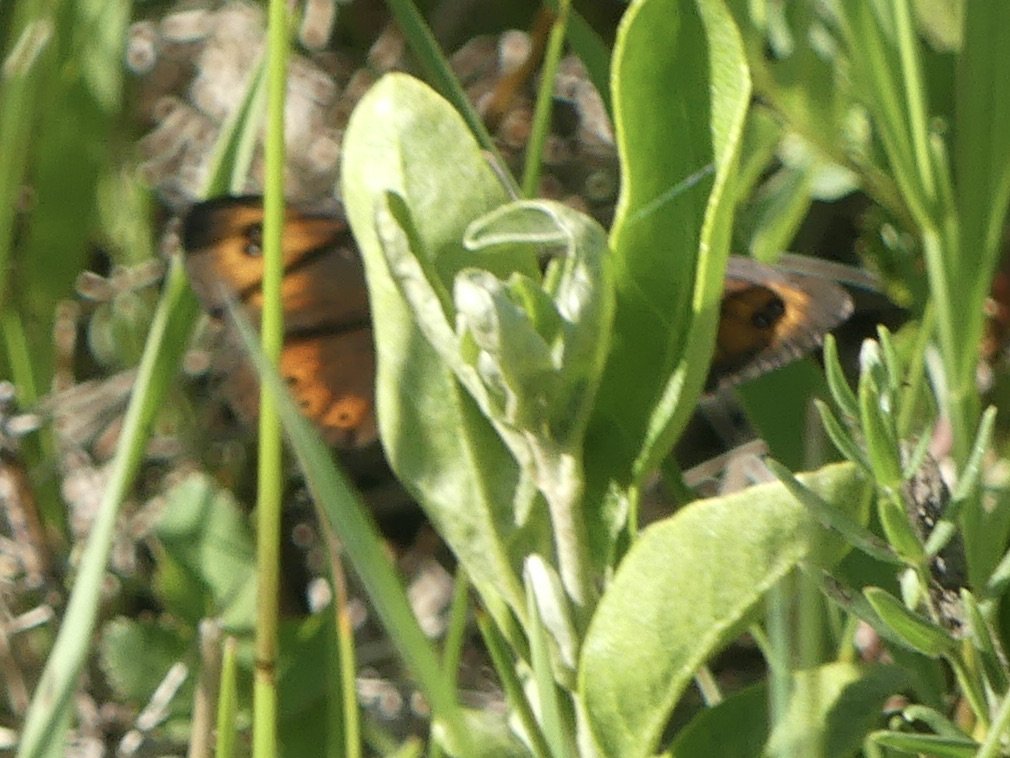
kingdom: Animalia
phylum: Arthropoda
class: Insecta
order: Lepidoptera
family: Nymphalidae
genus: Erebia
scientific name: Erebia epipsodea
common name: Common Alpine
